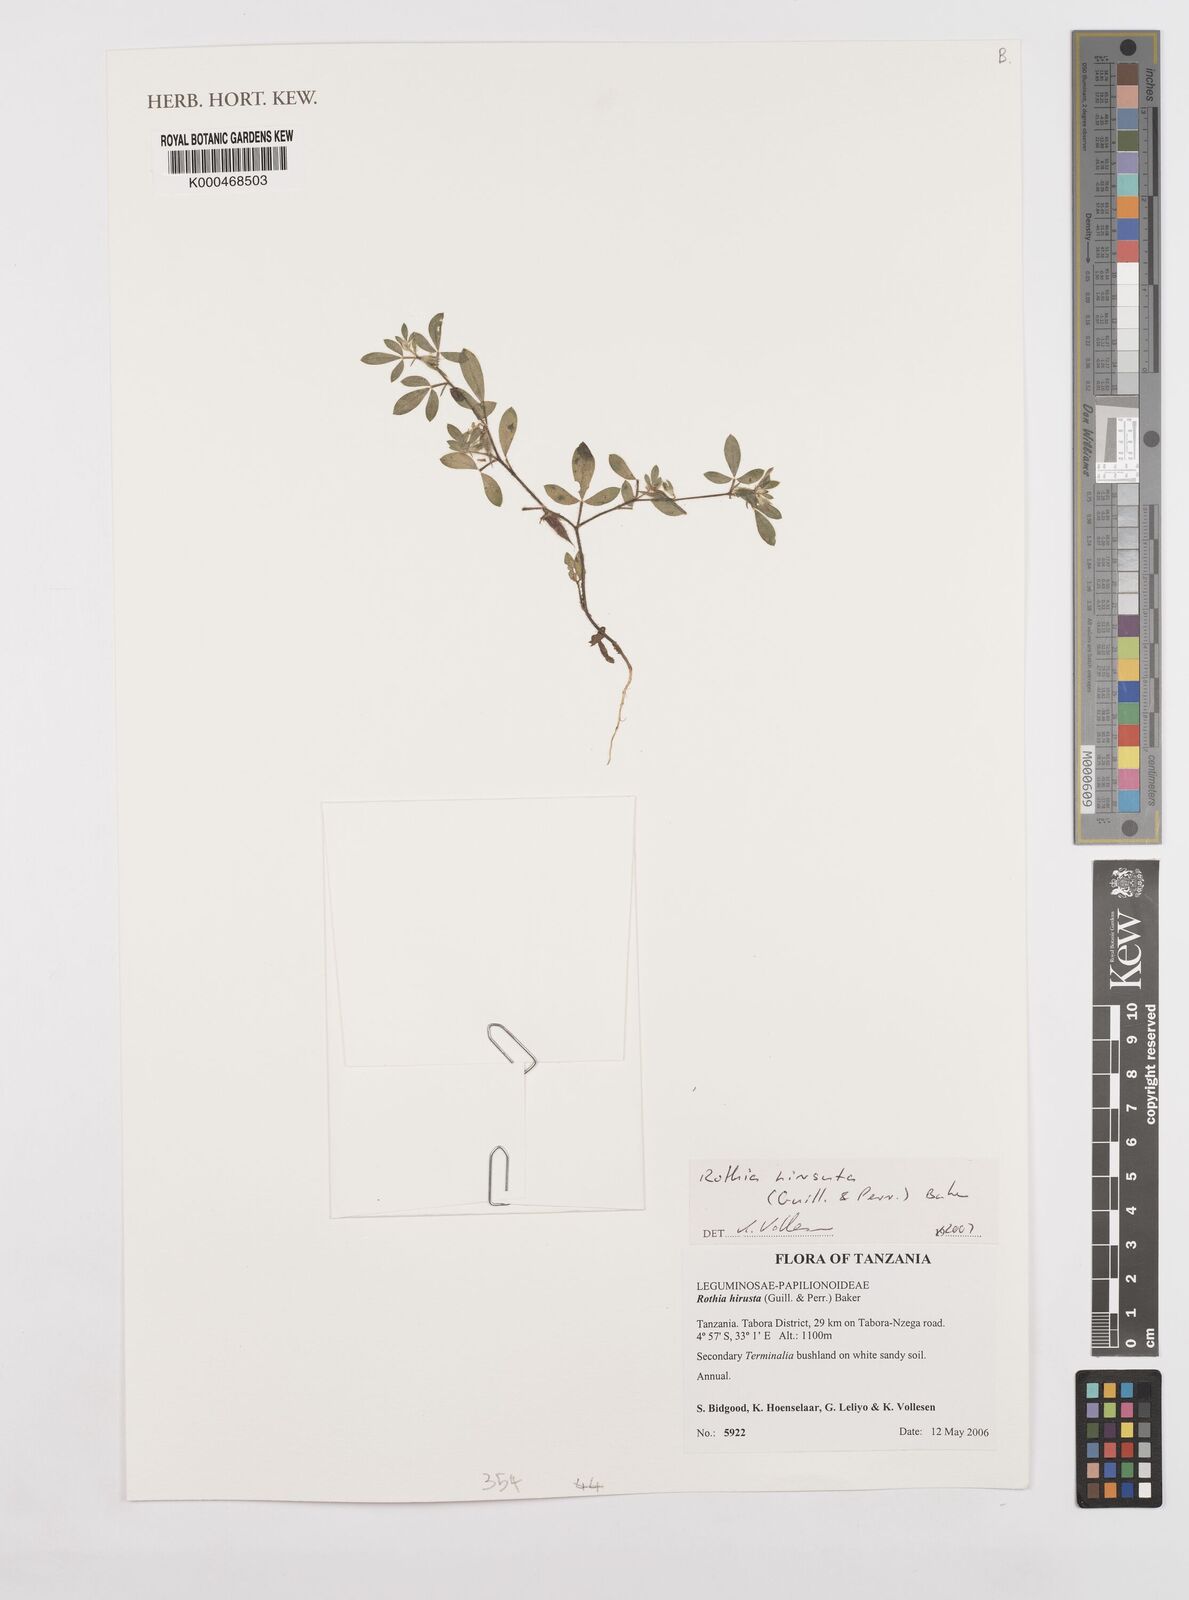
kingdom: Plantae
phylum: Tracheophyta
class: Magnoliopsida
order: Fabales
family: Fabaceae
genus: Rothia
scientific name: Rothia
